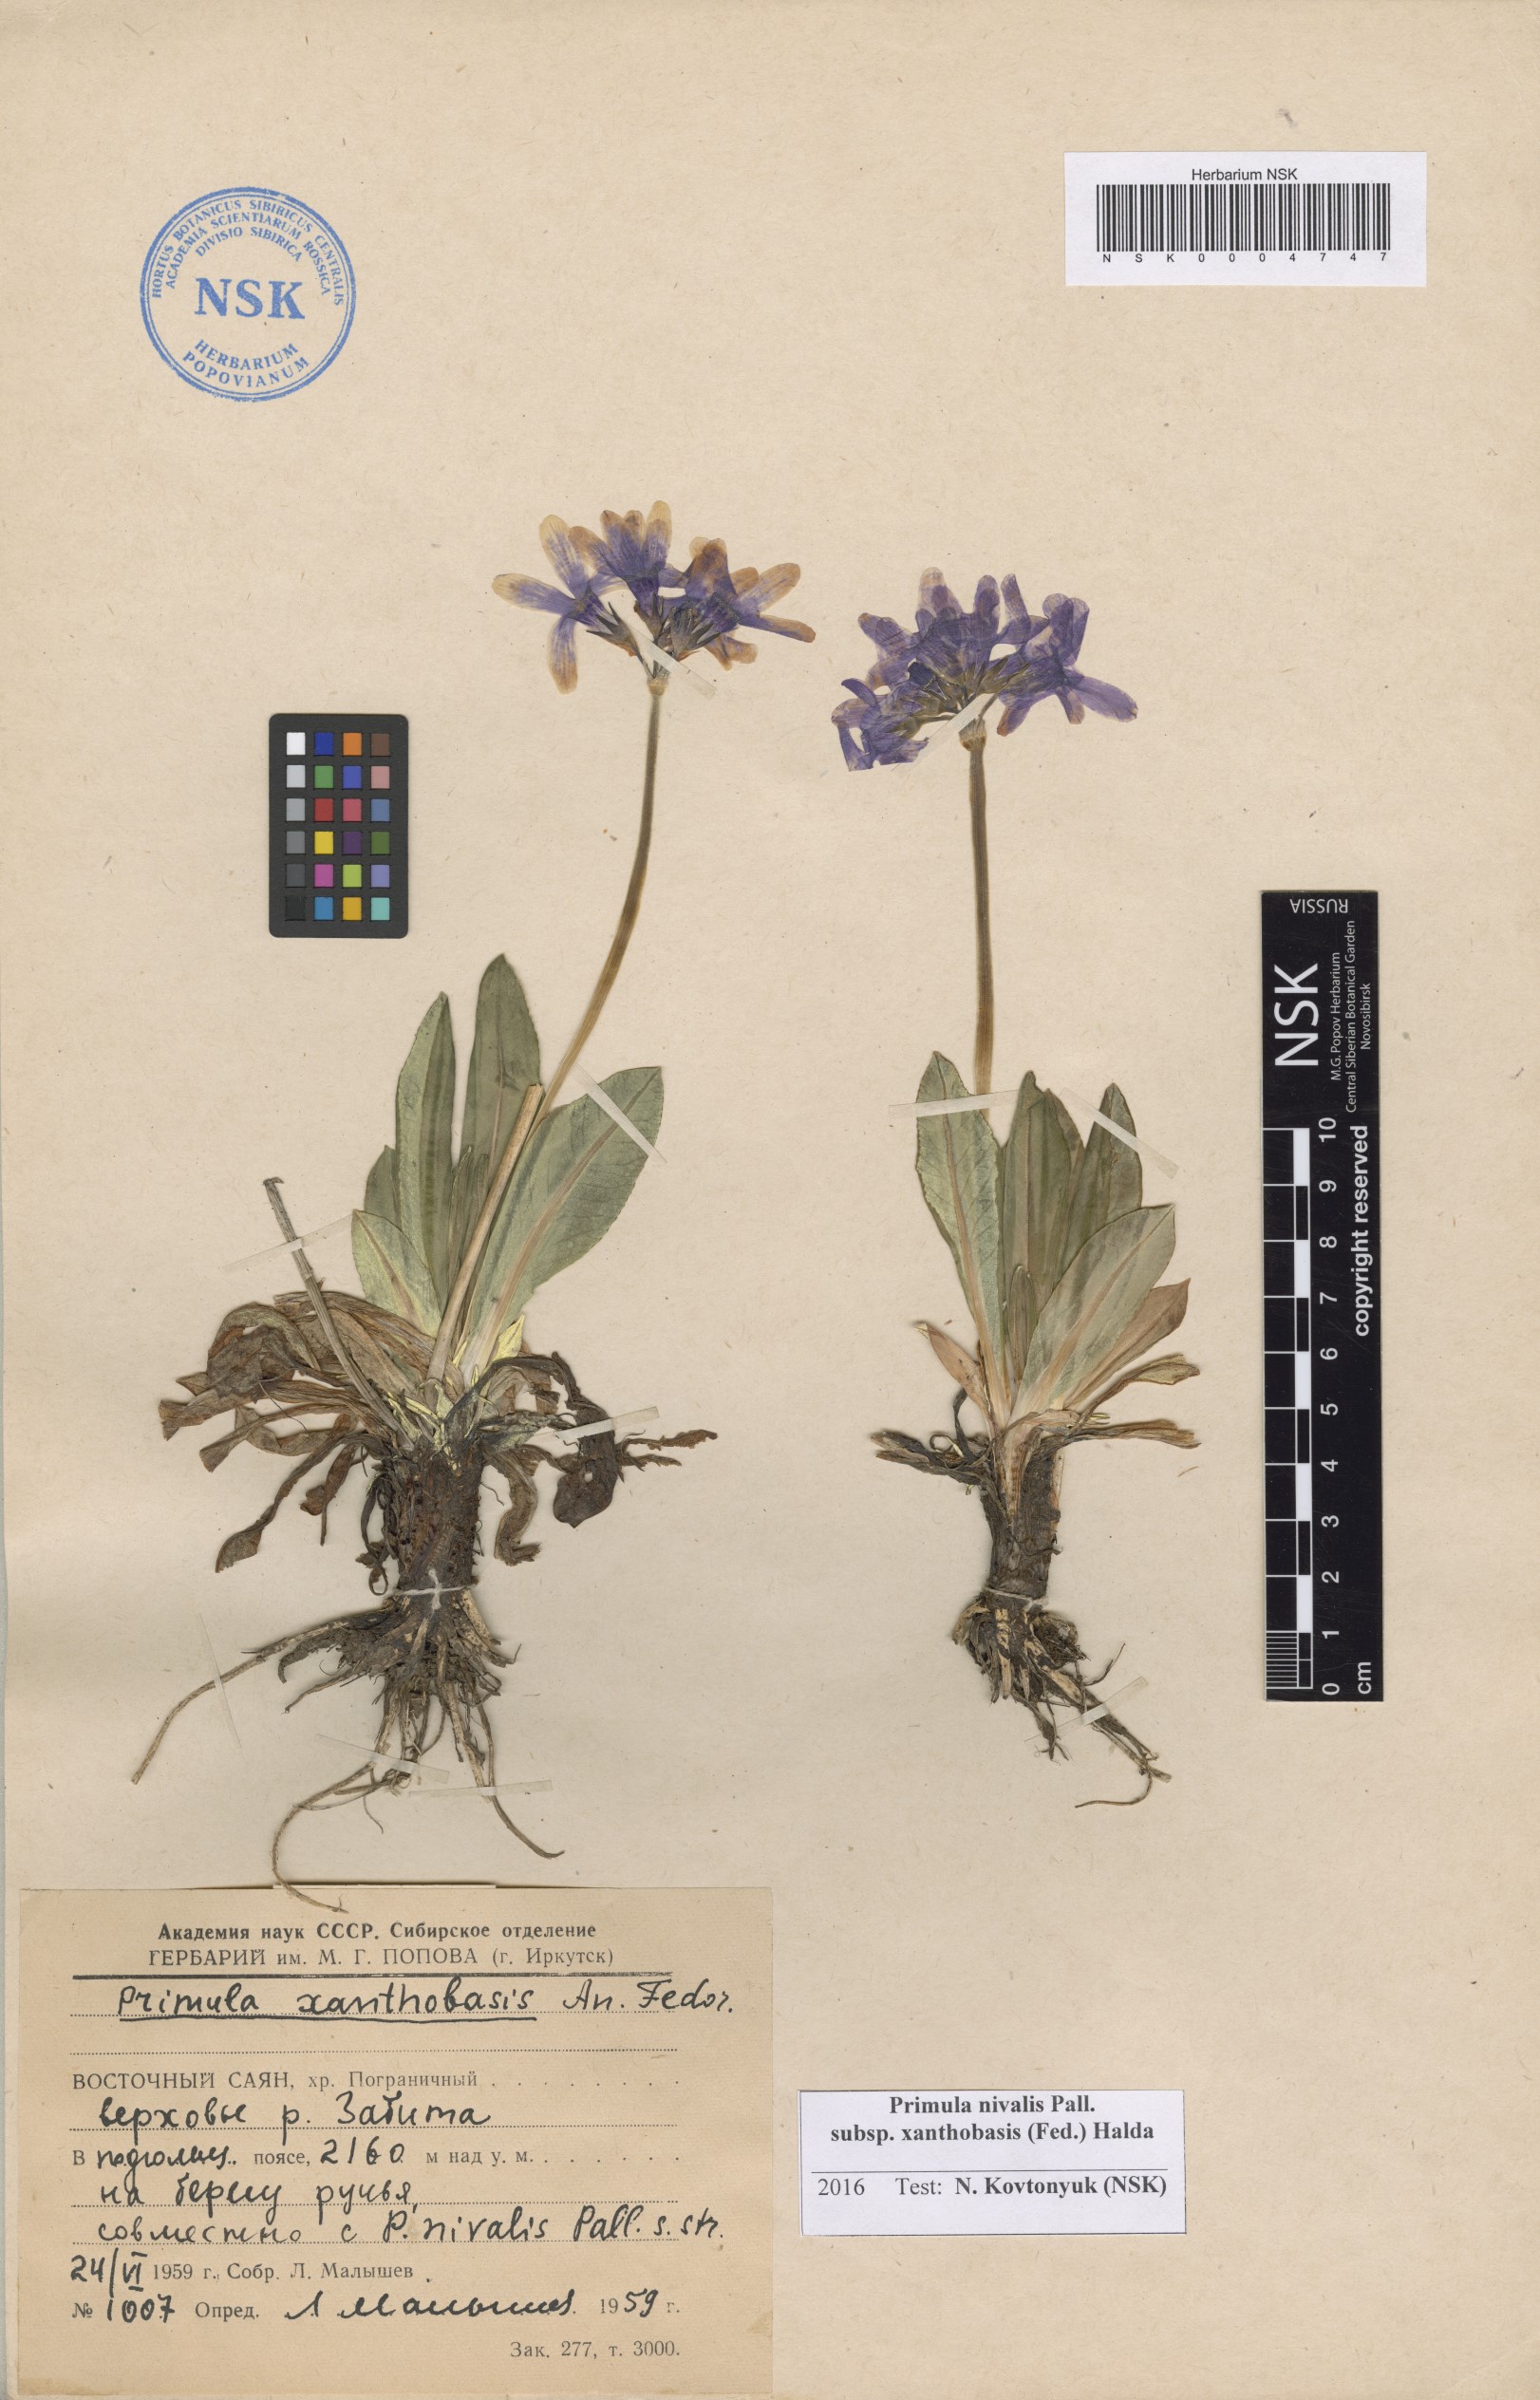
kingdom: Plantae
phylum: Tracheophyta
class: Magnoliopsida
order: Ericales
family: Primulaceae
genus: Primula
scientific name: Primula nivalis
